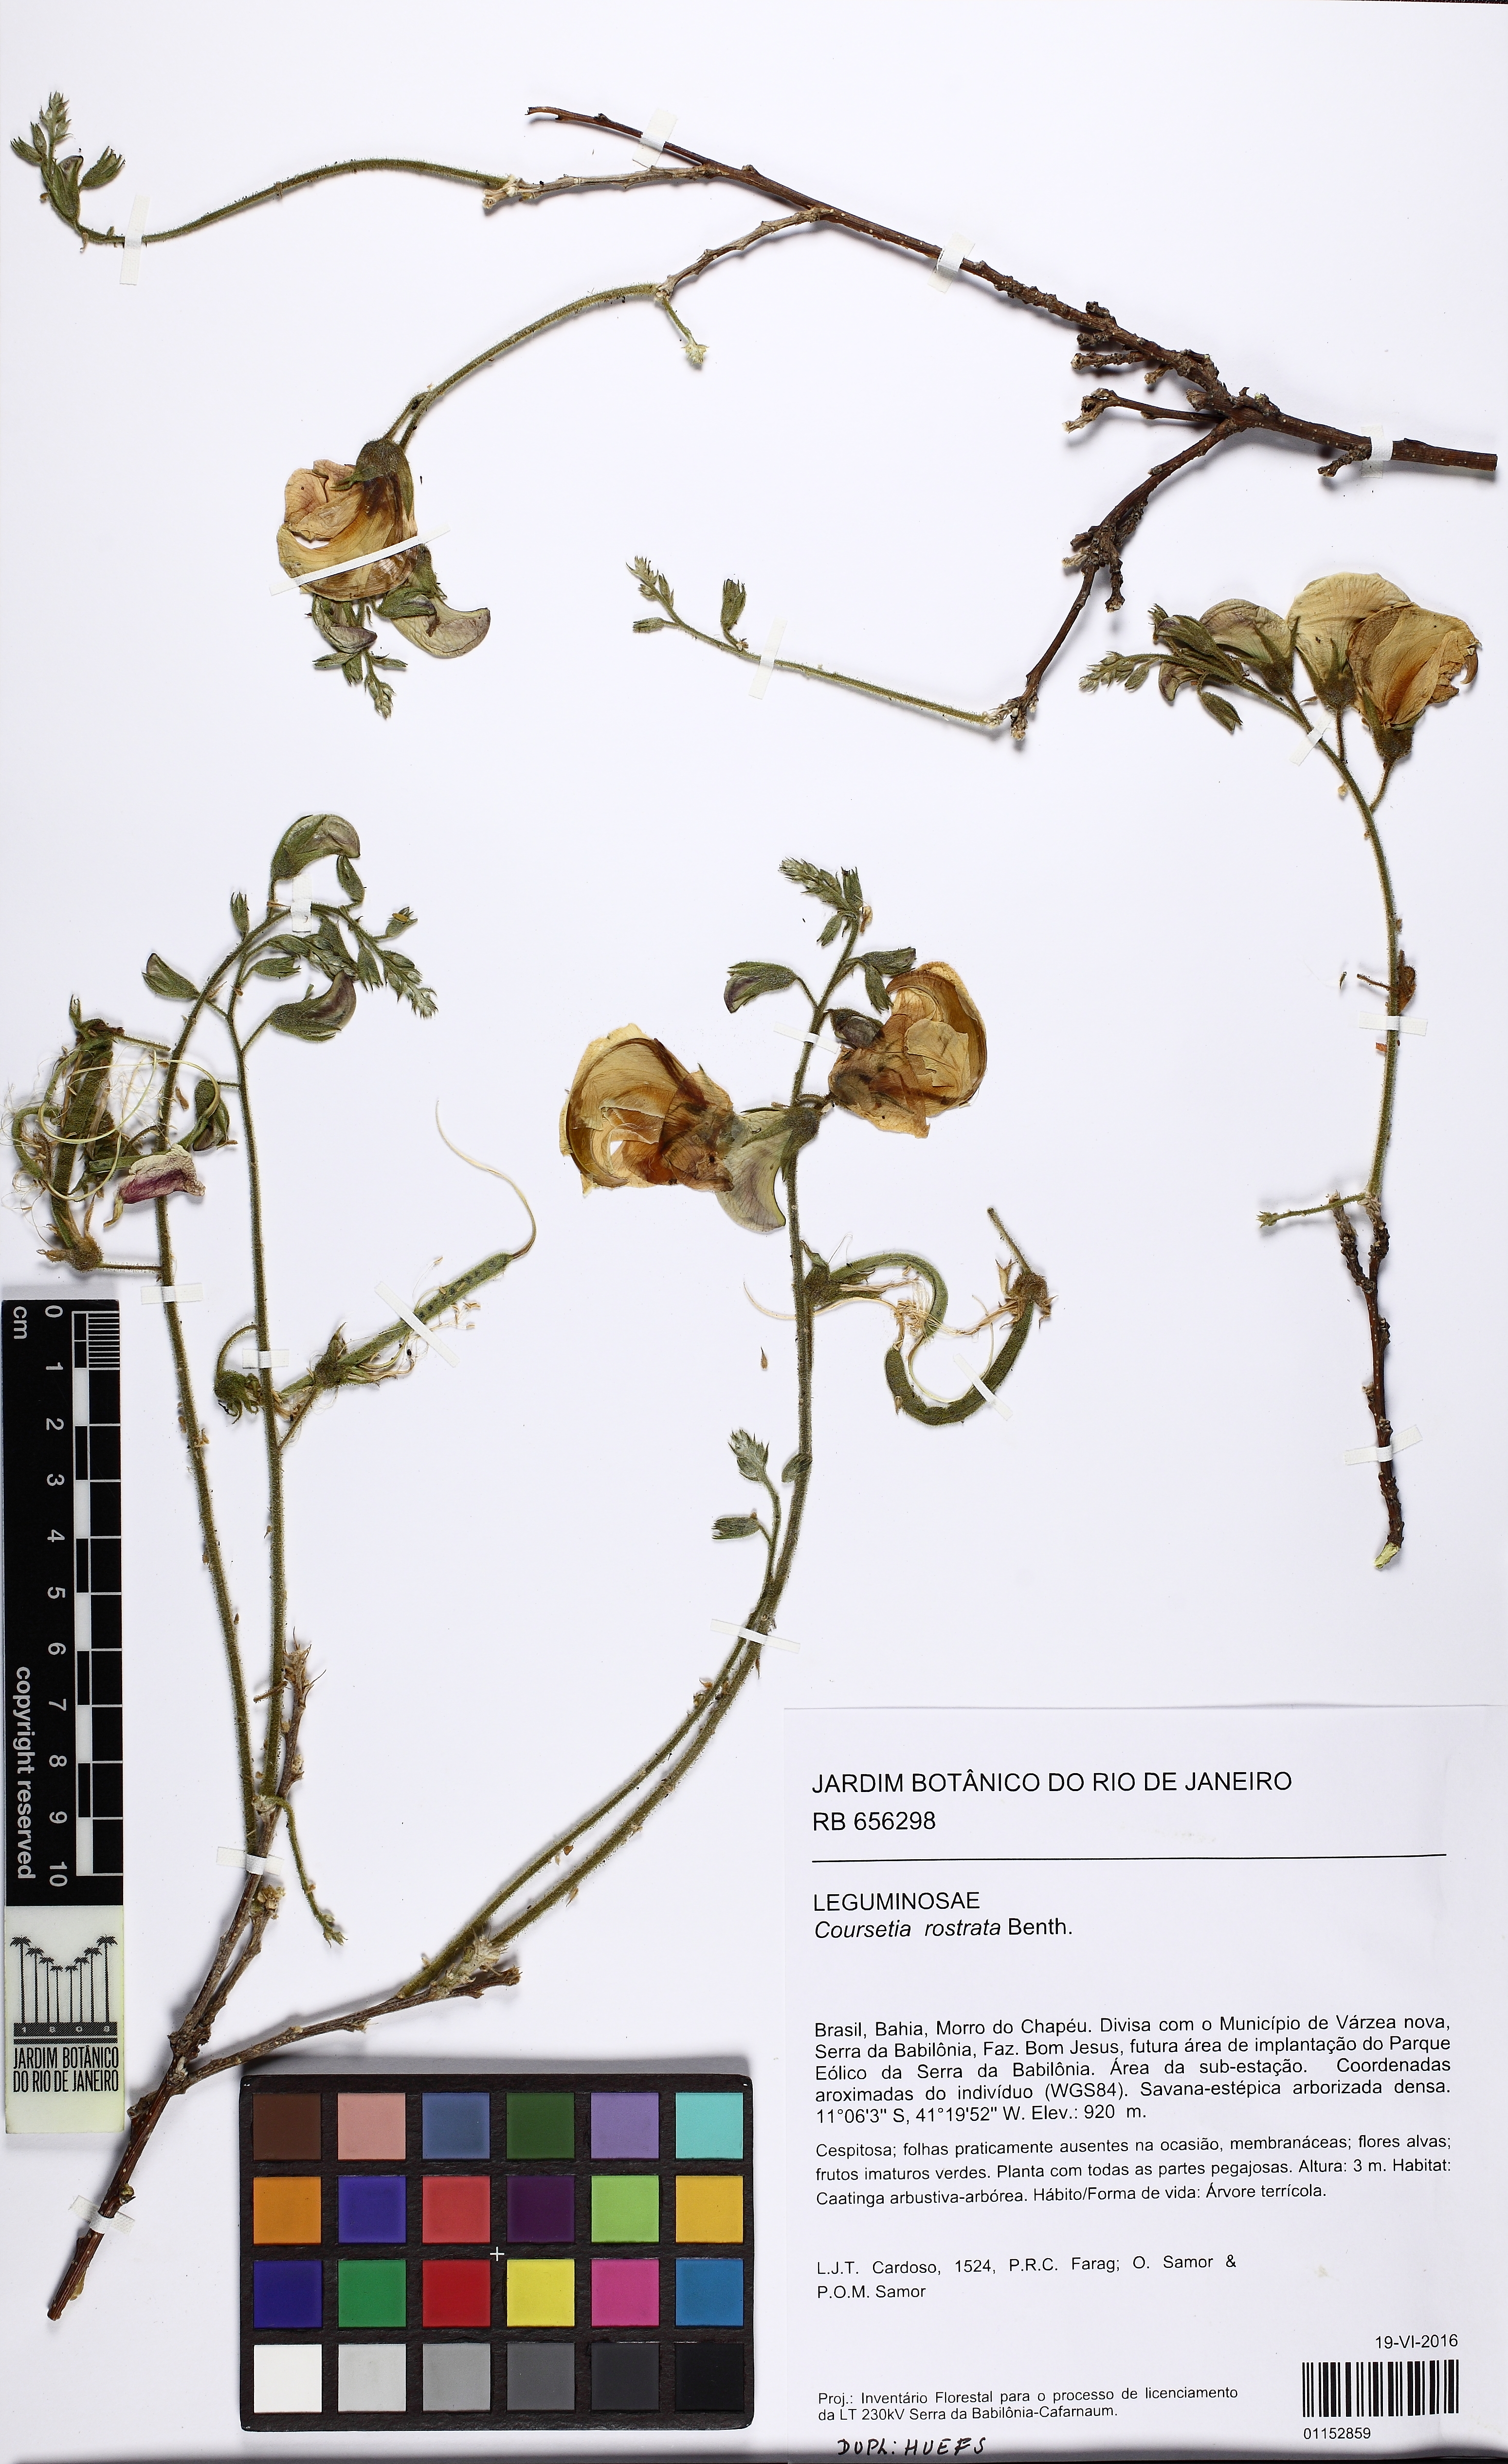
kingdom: Plantae
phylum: Tracheophyta
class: Magnoliopsida
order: Fabales
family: Fabaceae
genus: Coursetia
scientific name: Coursetia rostrata
